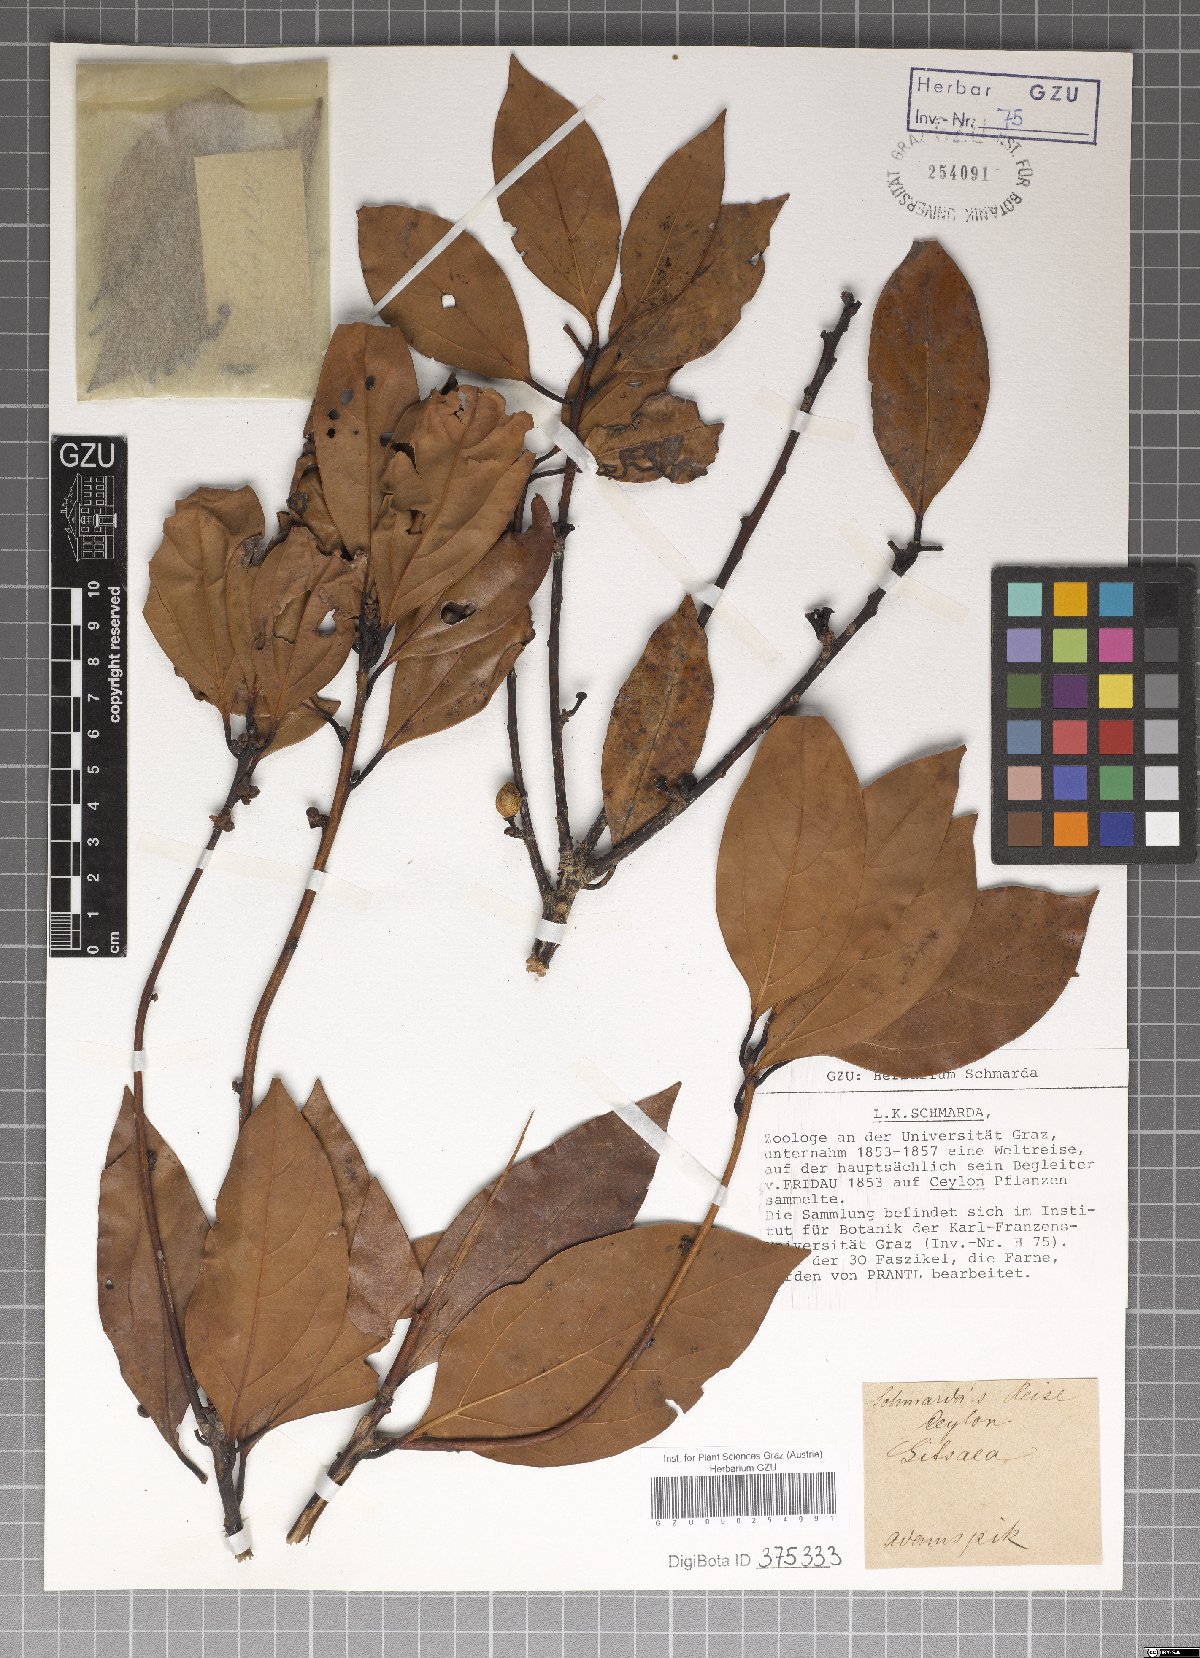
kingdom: Plantae
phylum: Tracheophyta
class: Magnoliopsida
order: Laurales
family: Lauraceae
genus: Litsea
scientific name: Litsea
